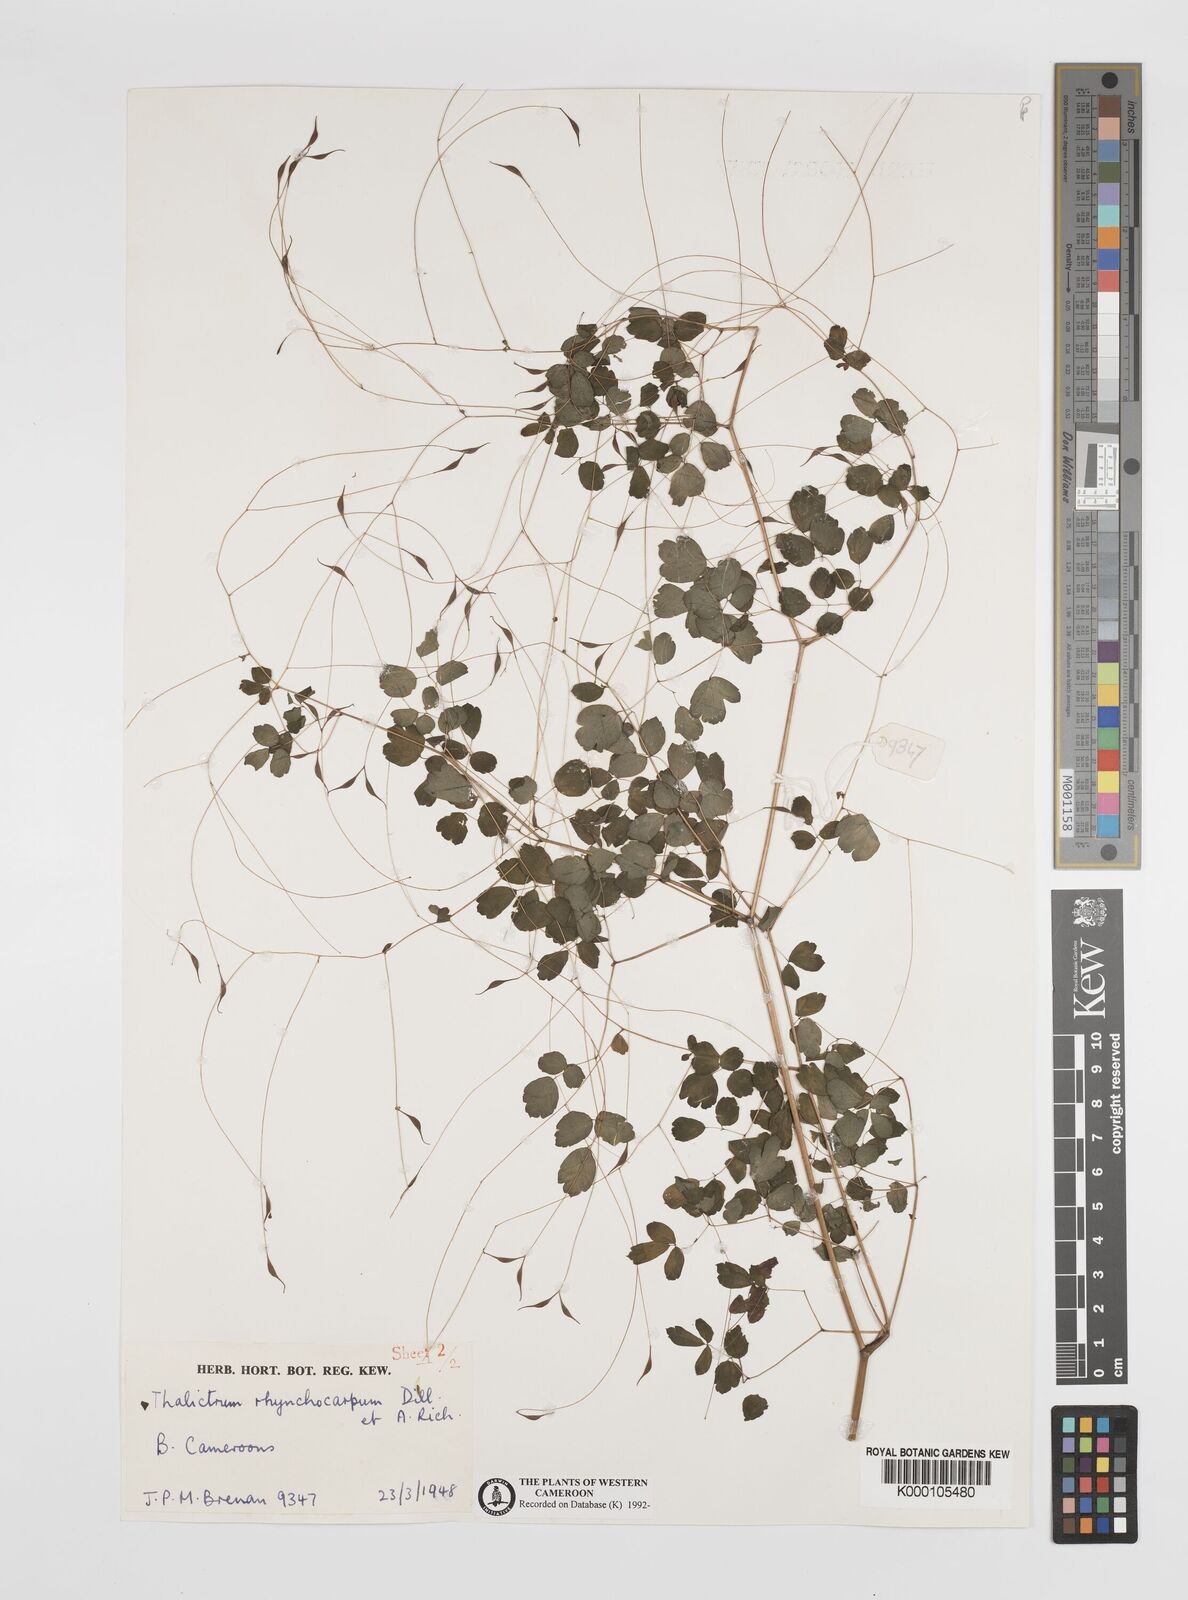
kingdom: Plantae
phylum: Tracheophyta
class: Magnoliopsida
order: Ranunculales
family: Ranunculaceae
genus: Thalictrum
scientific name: Thalictrum
